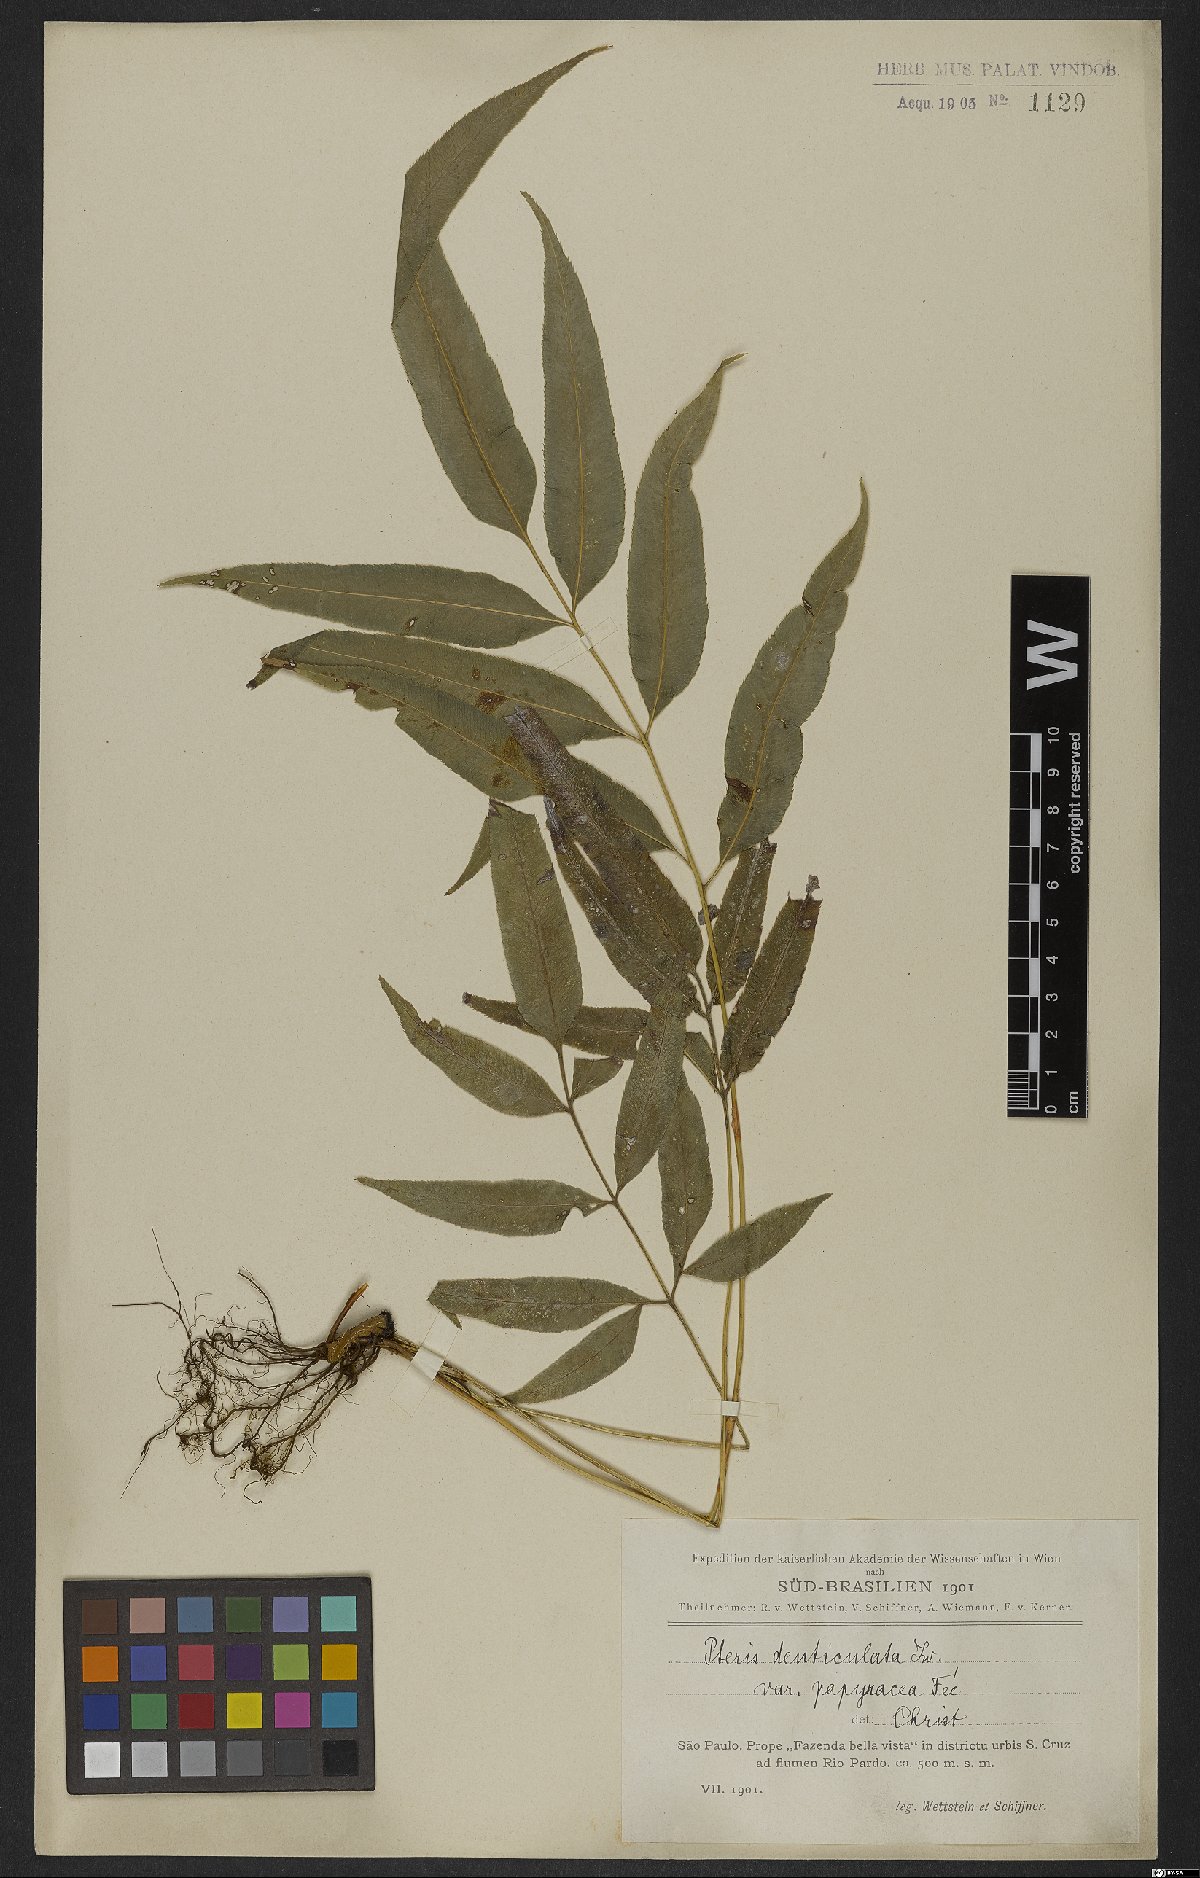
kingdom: Plantae
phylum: Tracheophyta
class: Polypodiopsida
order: Polypodiales
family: Pteridaceae
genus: Pteris
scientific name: Pteris denticulata
